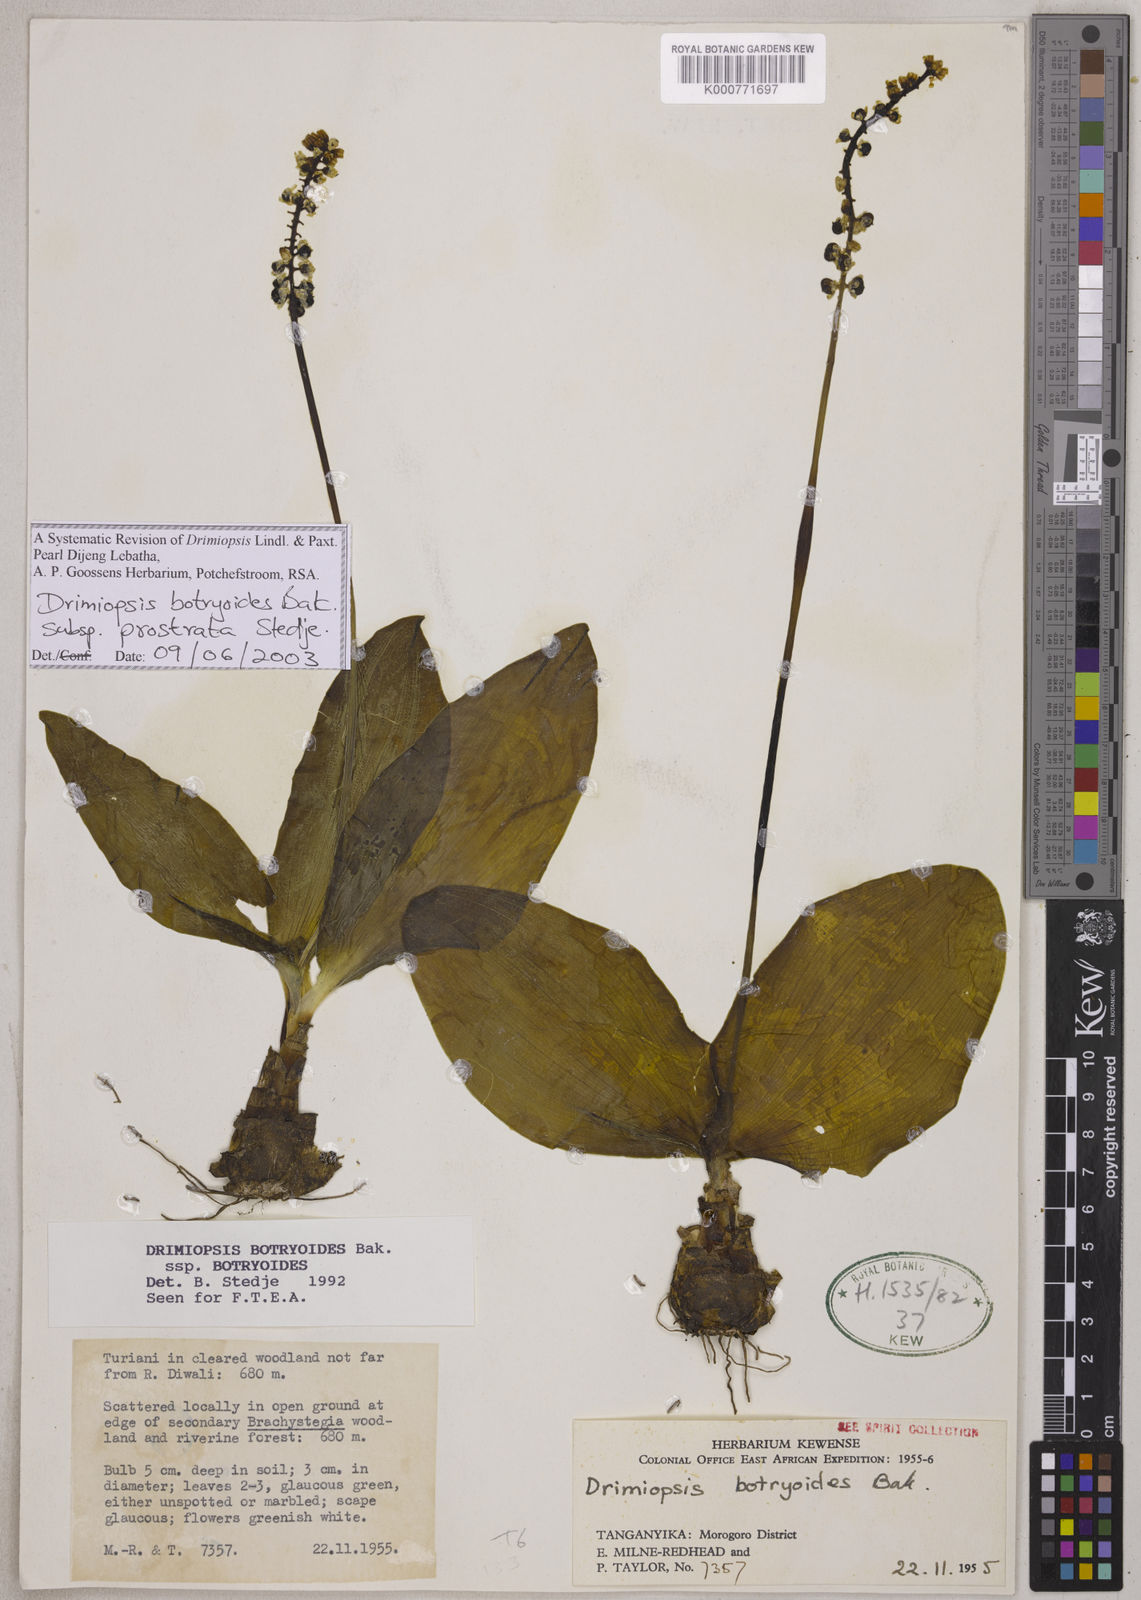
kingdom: Plantae
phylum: Tracheophyta
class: Liliopsida
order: Asparagales
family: Asparagaceae
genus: Drimiopsis
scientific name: Drimiopsis botryoides
